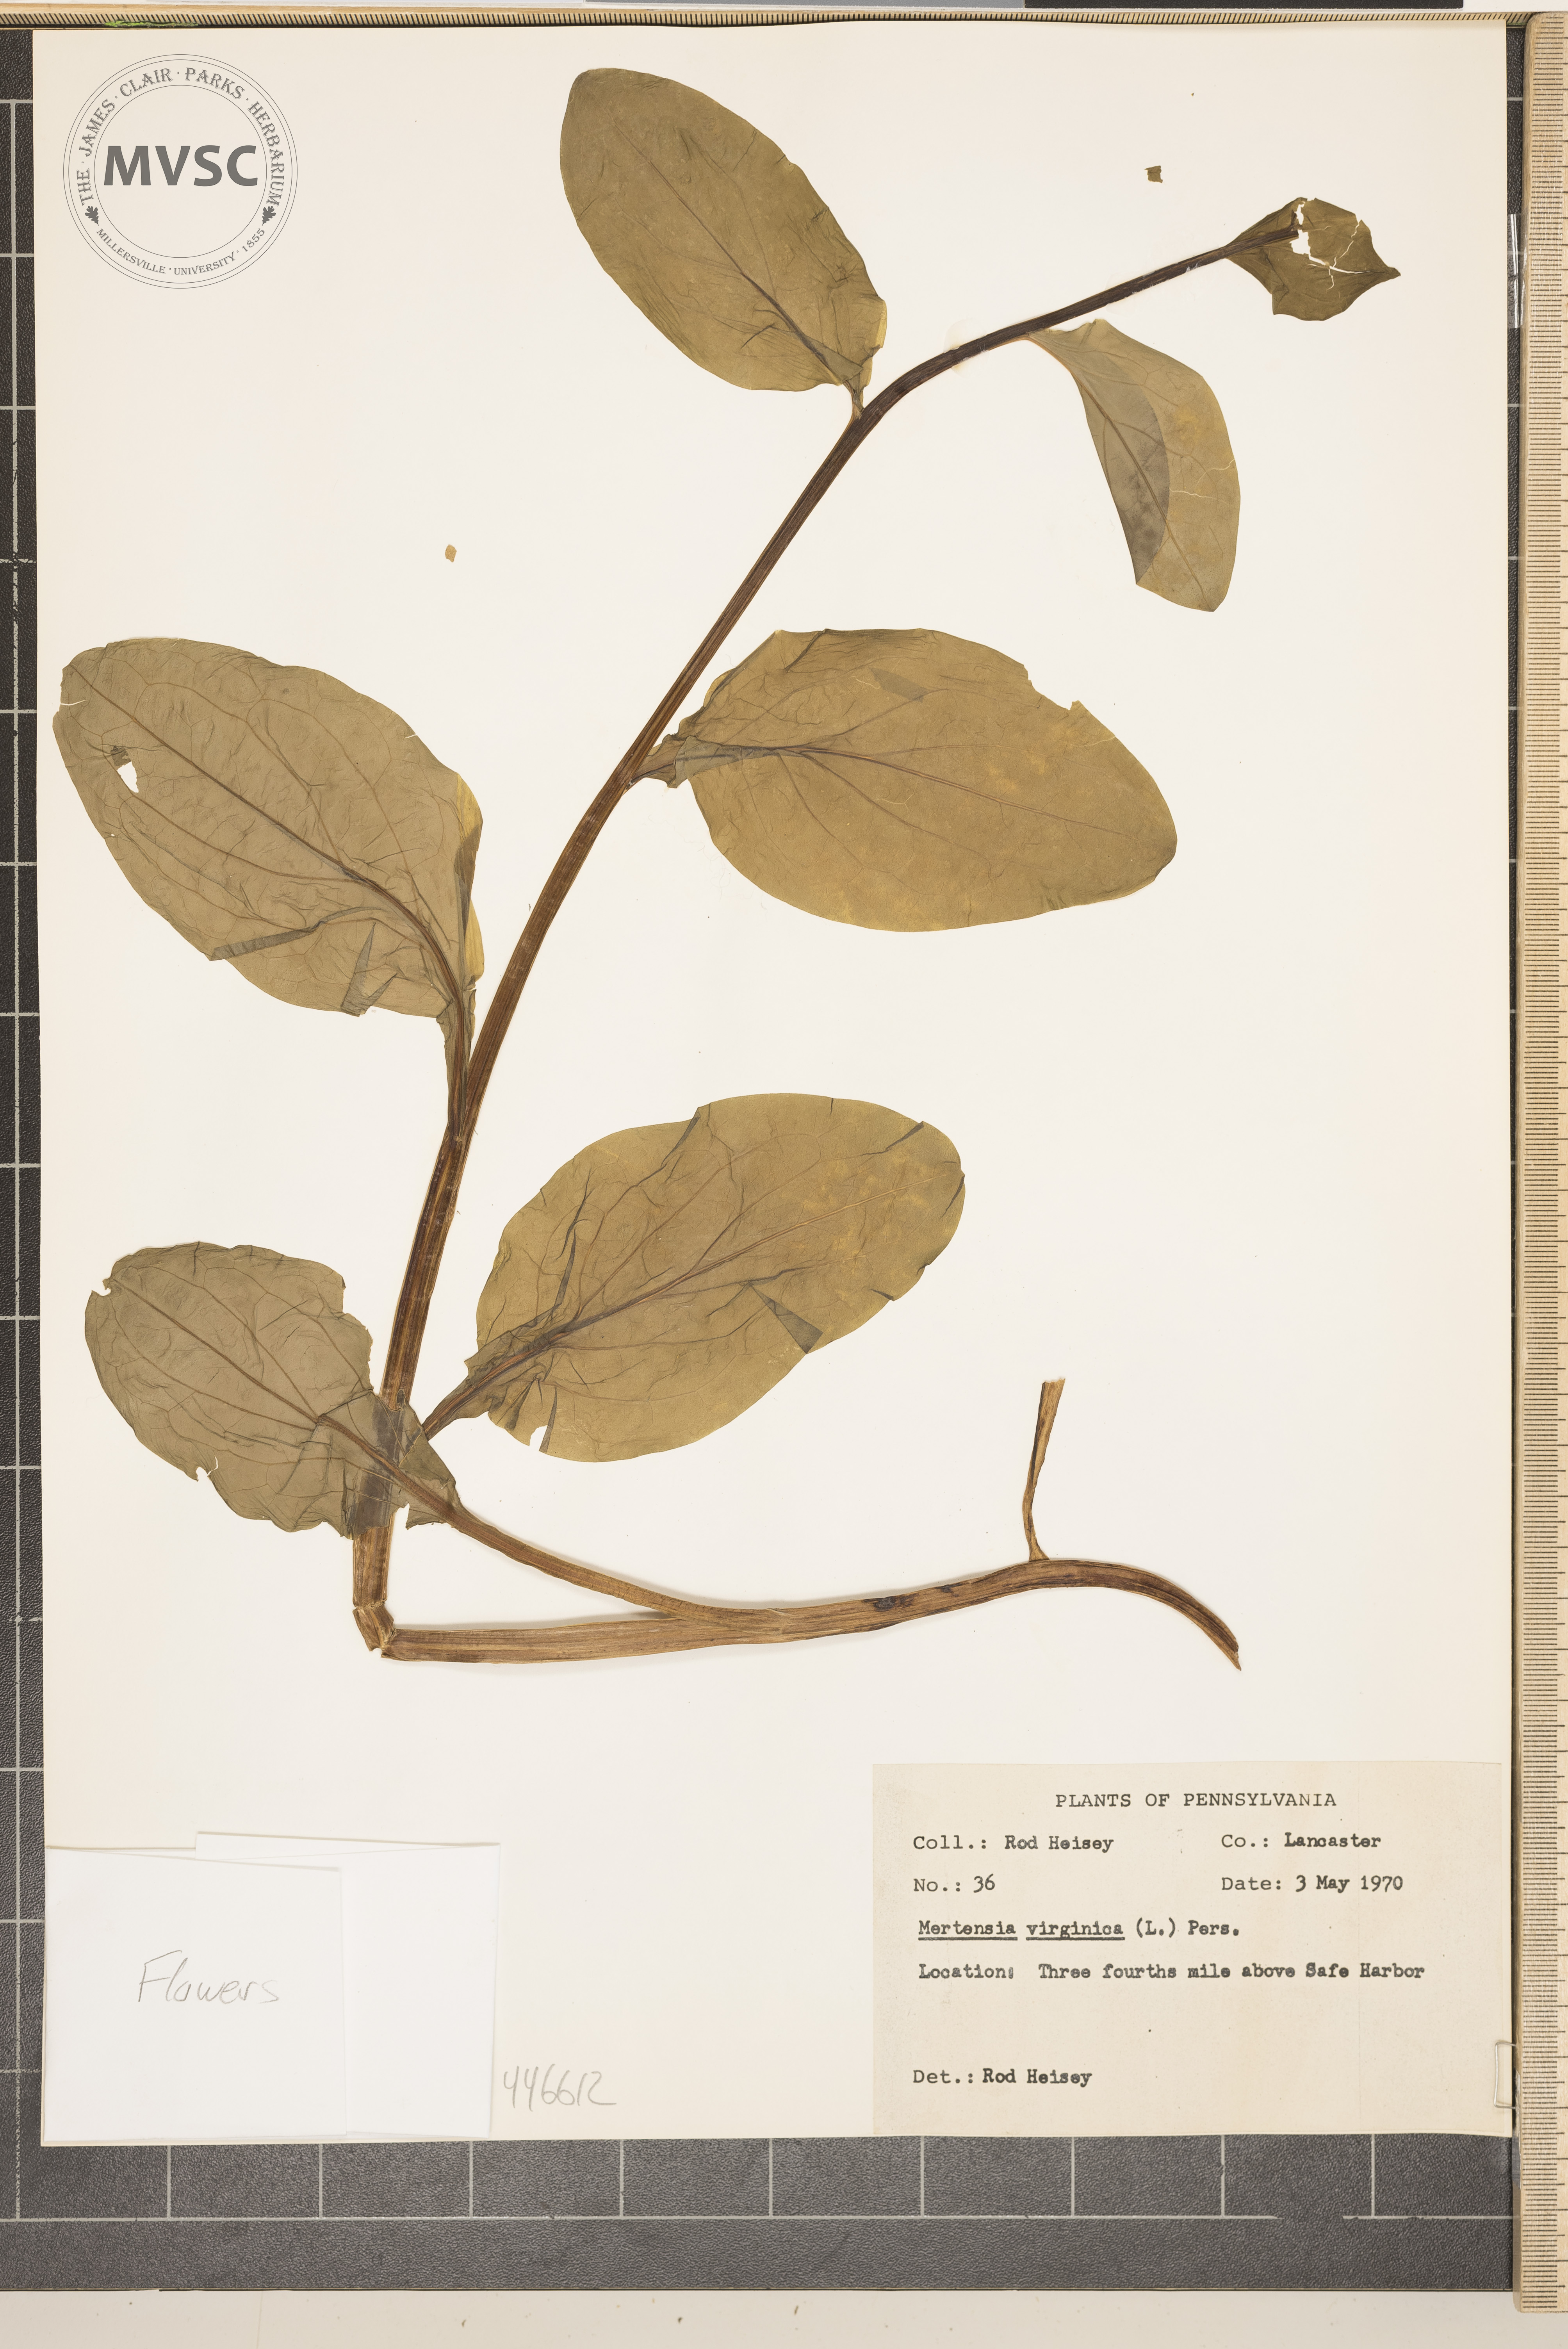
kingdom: Plantae
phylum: Tracheophyta
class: Magnoliopsida
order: Boraginales
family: Boraginaceae
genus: Mertensia
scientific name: Mertensia virginica
